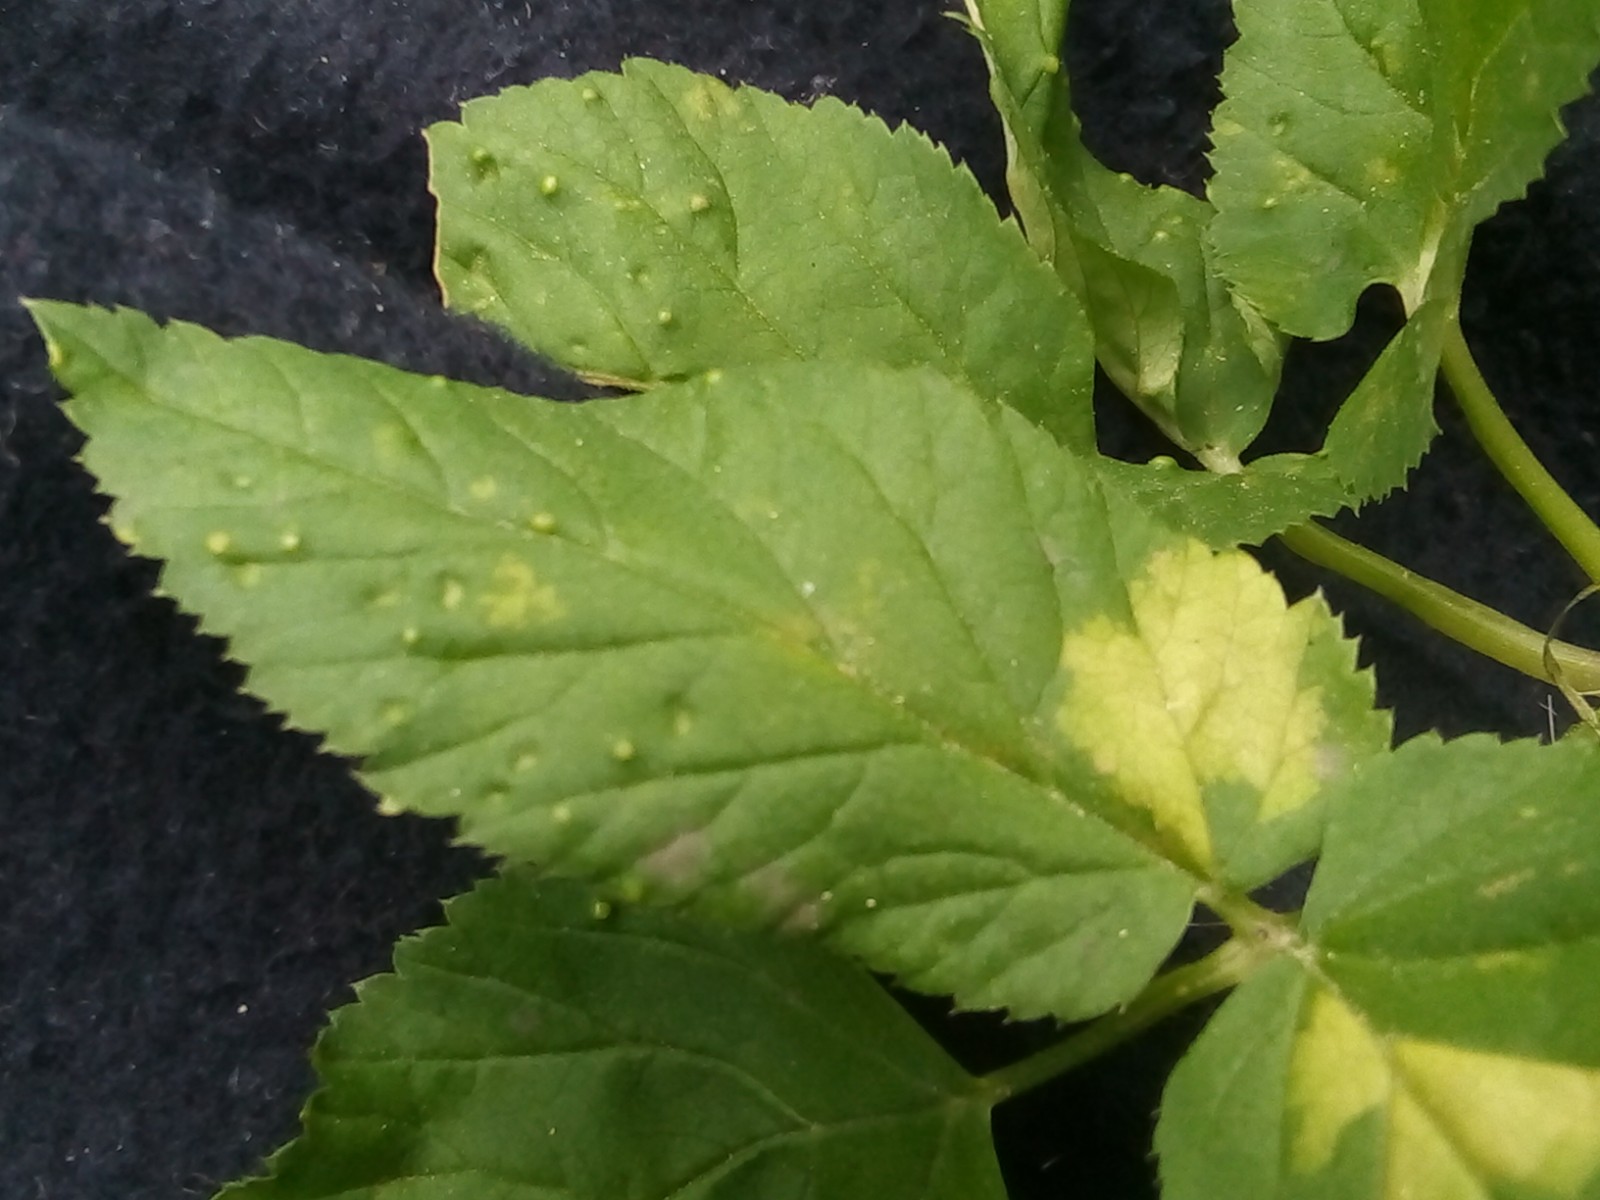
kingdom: Fungi
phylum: Ascomycota
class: Taphrinomycetes
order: Taphrinales
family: Taphrinaceae
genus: Protomyces
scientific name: Protomyces macrosporus
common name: skvalderkål-vablesæk
